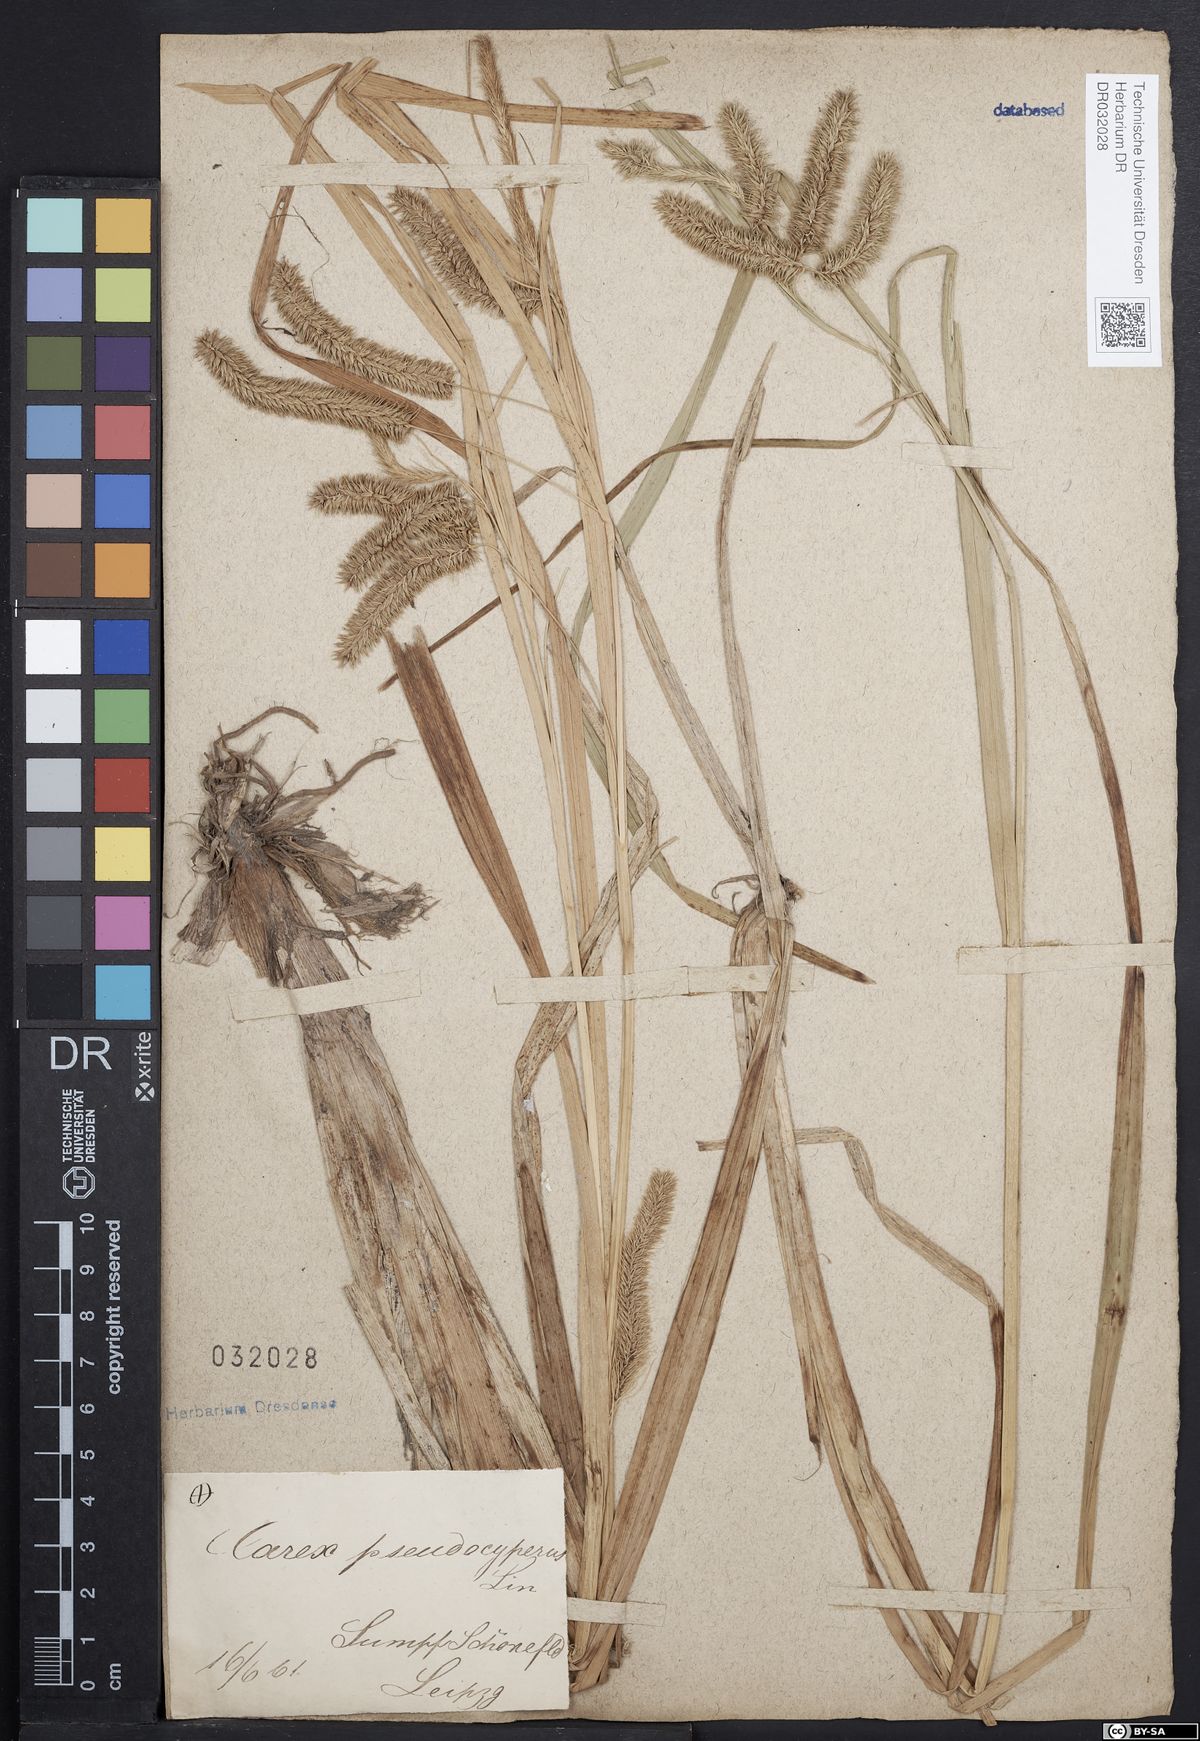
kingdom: Plantae
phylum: Tracheophyta
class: Liliopsida
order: Poales
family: Cyperaceae
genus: Carex
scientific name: Carex pseudocyperus
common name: Cyperus sedge
